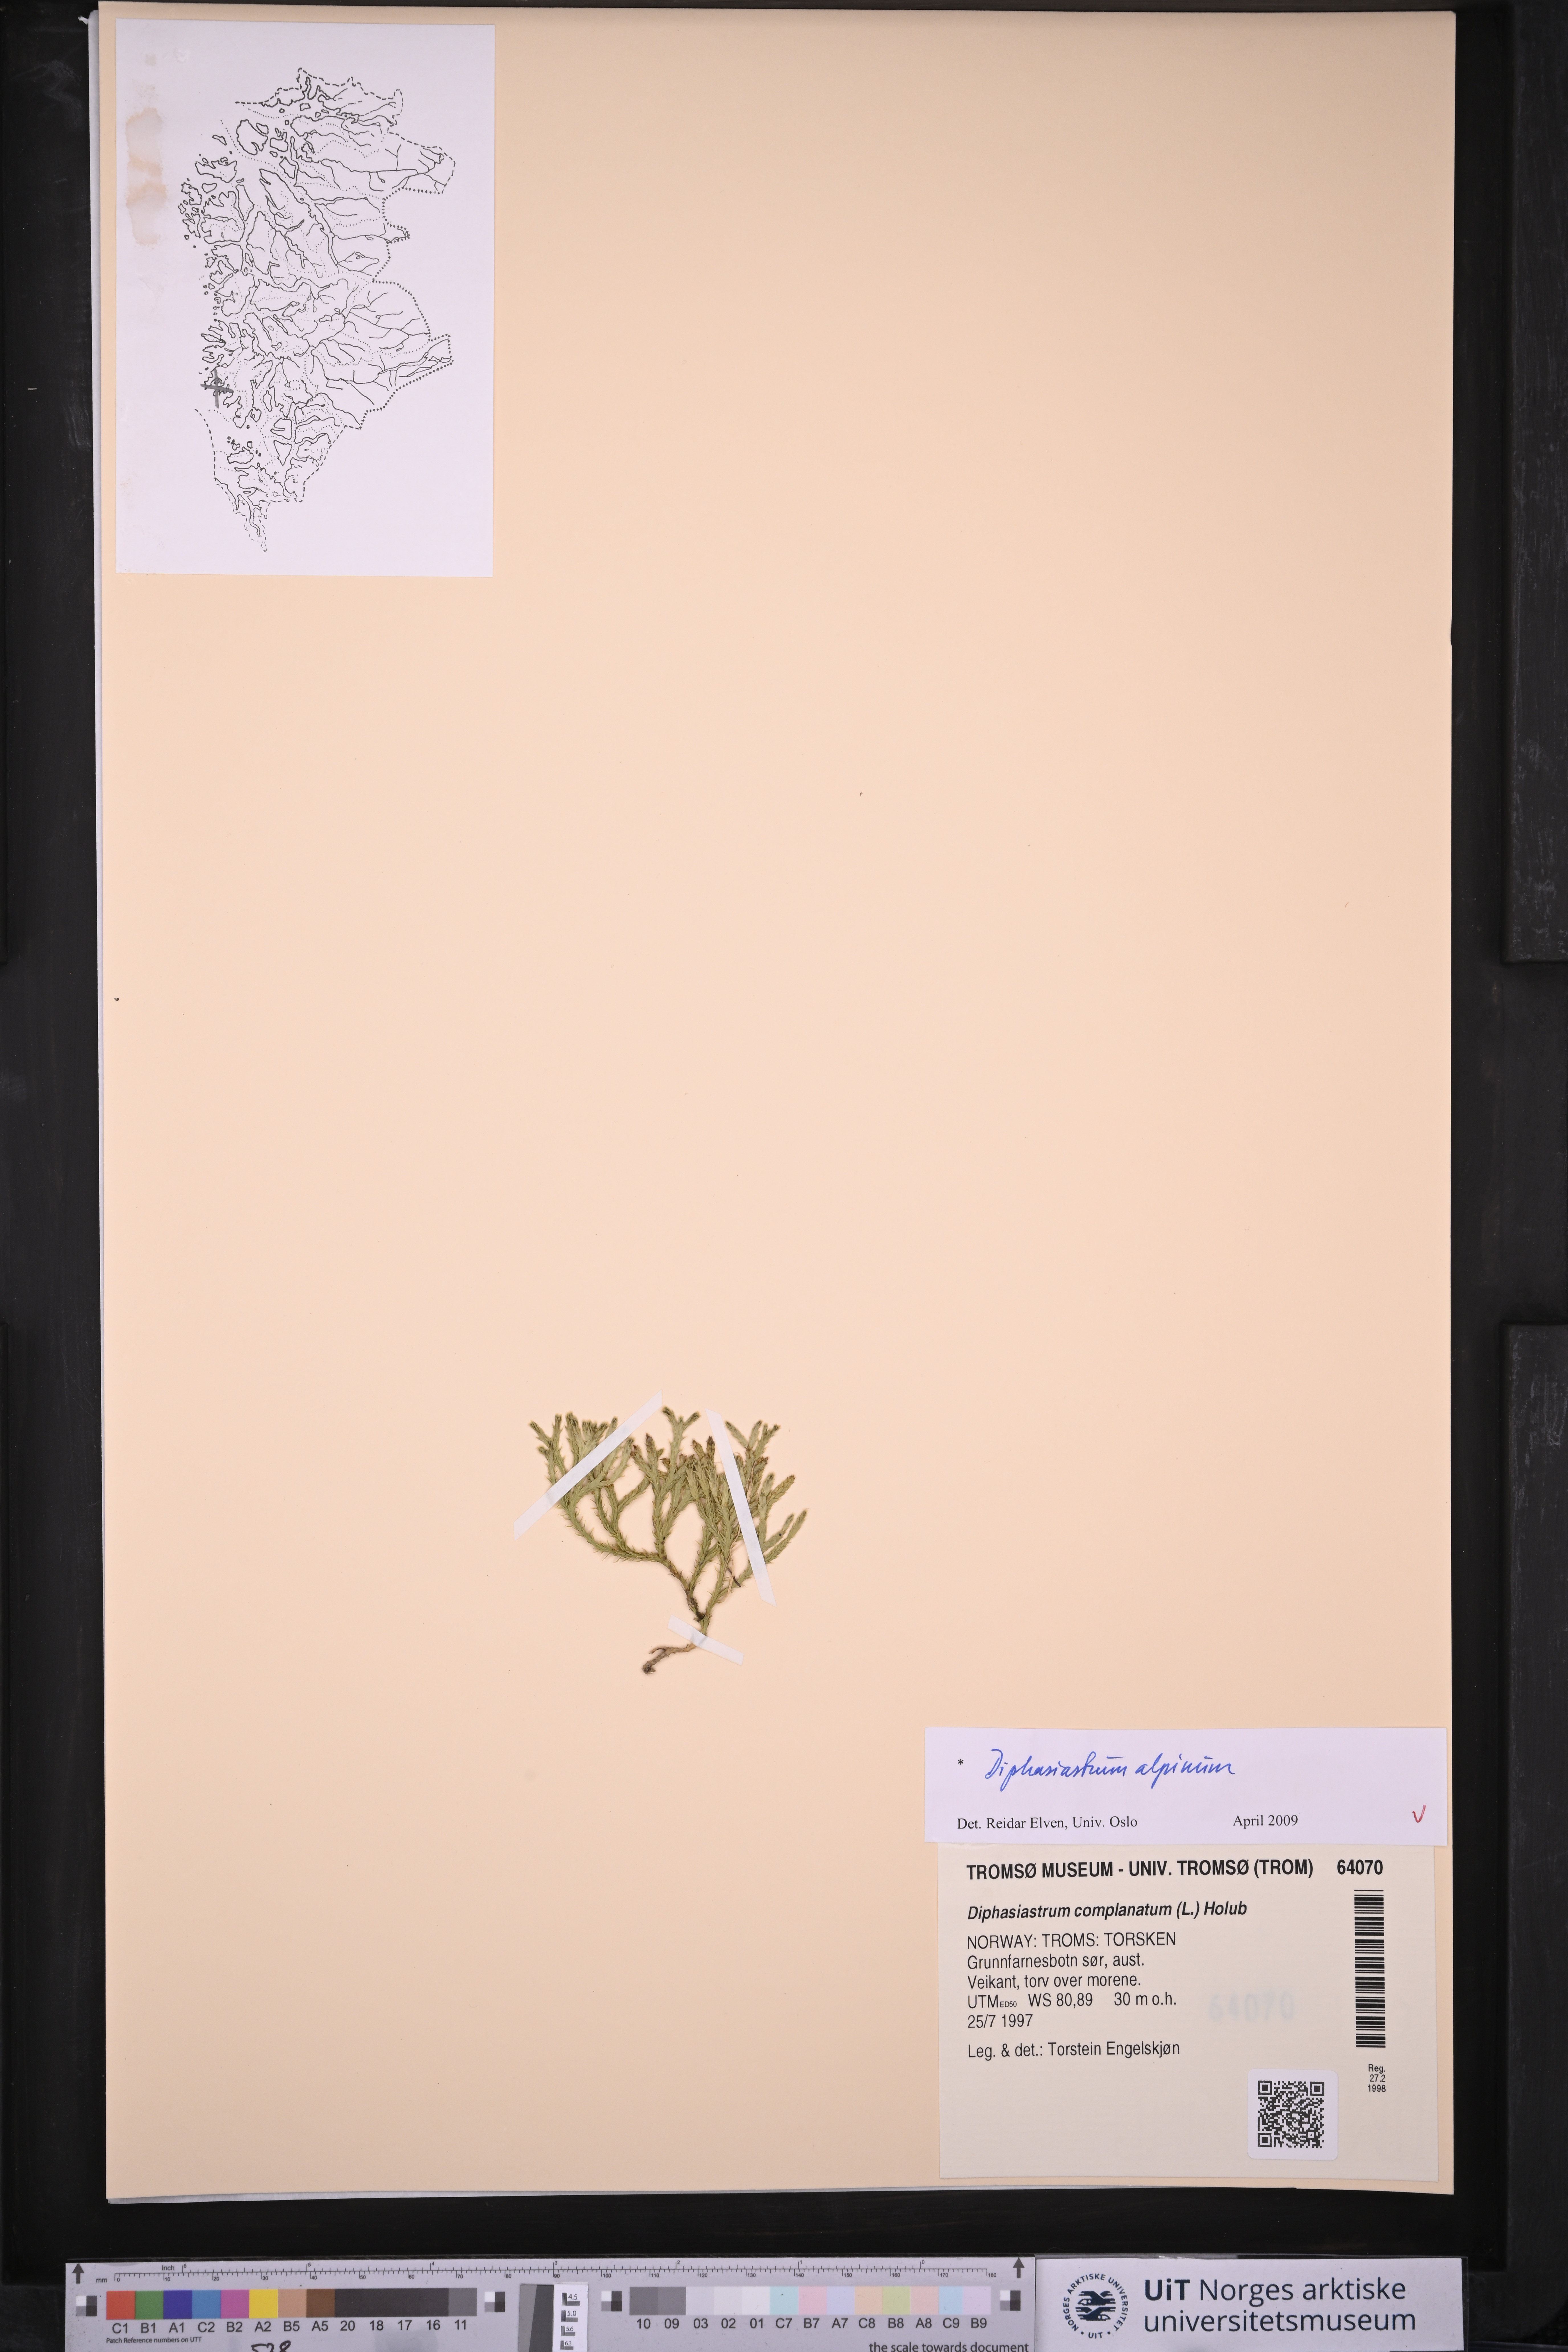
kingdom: Plantae
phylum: Tracheophyta
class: Lycopodiopsida
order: Lycopodiales
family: Lycopodiaceae
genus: Diphasiastrum
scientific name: Diphasiastrum alpinum
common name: Alpine clubmoss
